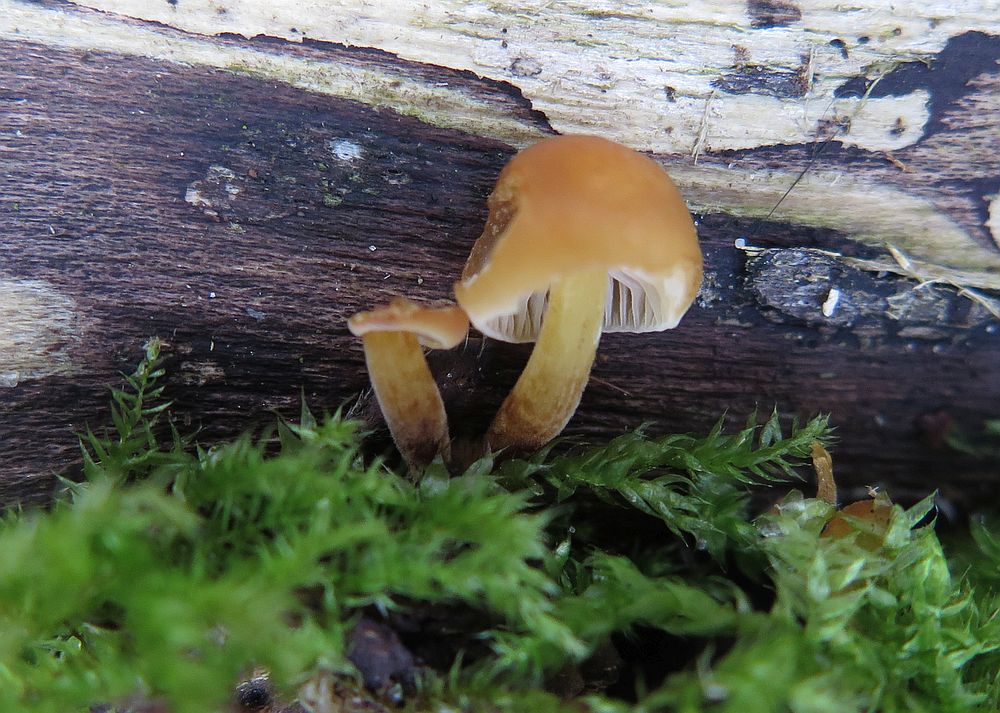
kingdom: Fungi
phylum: Basidiomycota
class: Agaricomycetes
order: Agaricales
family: Physalacriaceae
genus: Flammulina
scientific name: Flammulina velutipes
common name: gul fløjlsfod
